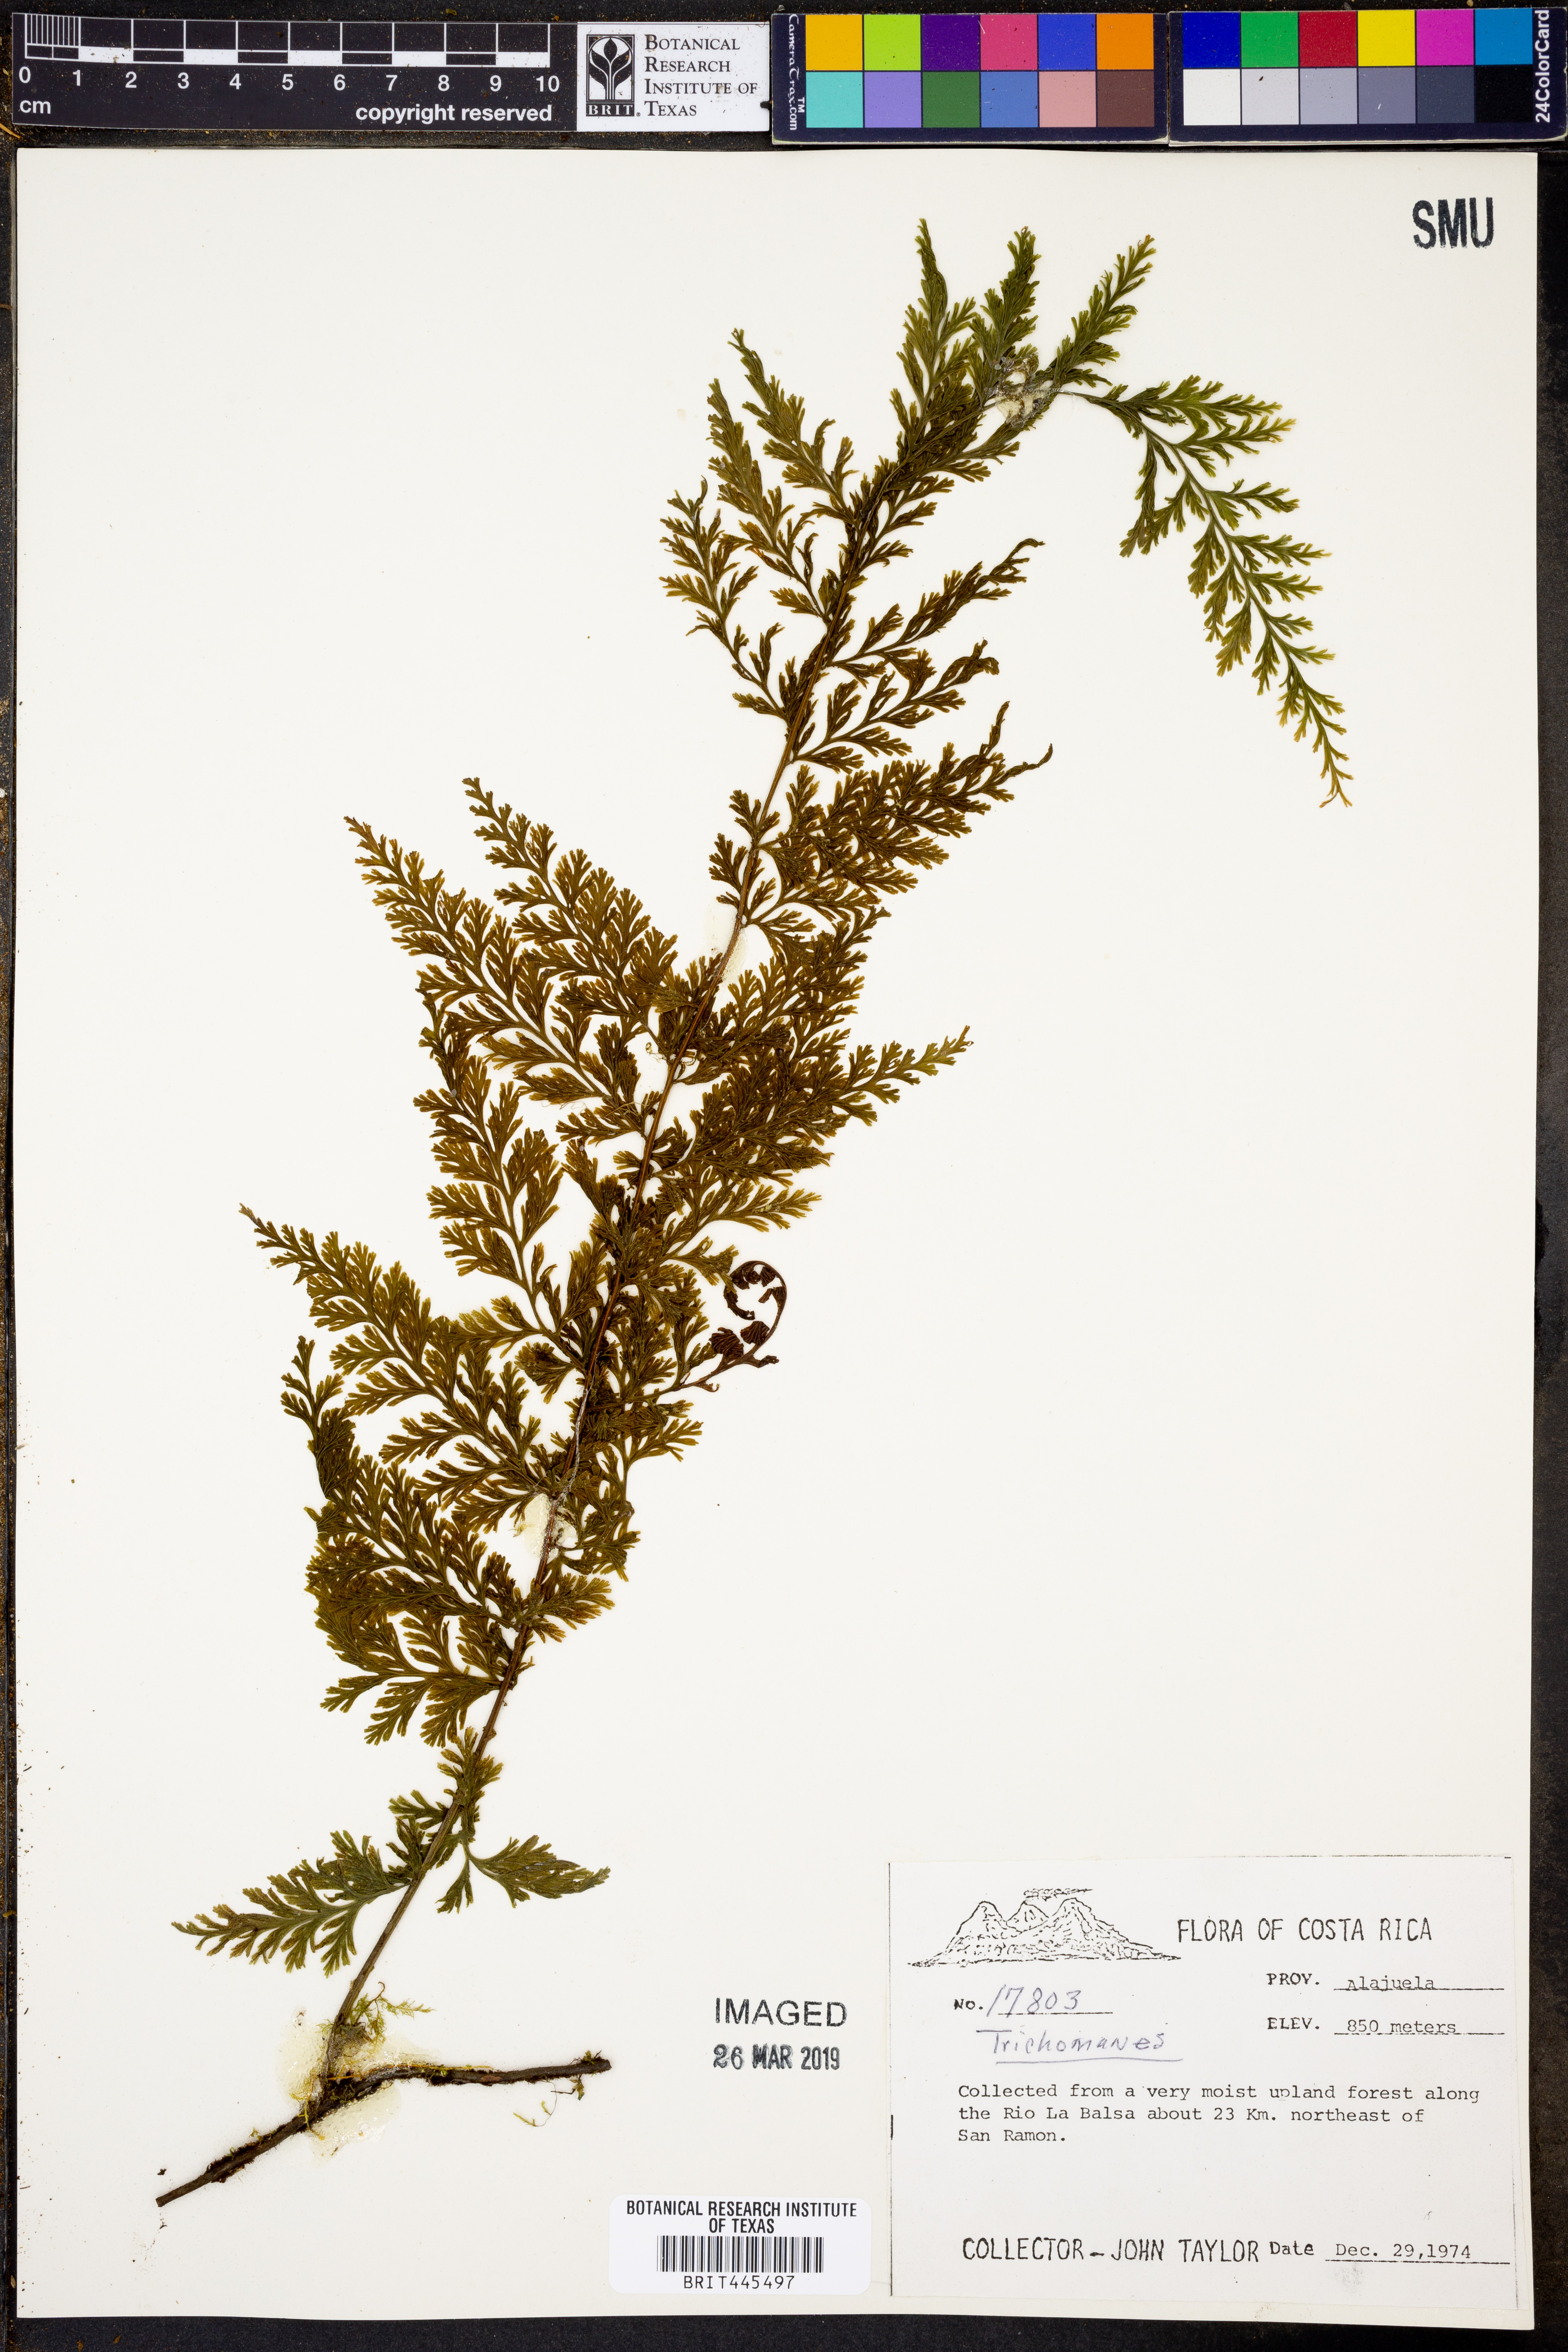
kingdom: Plantae
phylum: Tracheophyta
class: Polypodiopsida
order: Hymenophyllales
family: Hymenophyllaceae
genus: Trichomanes
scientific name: Trichomanes
